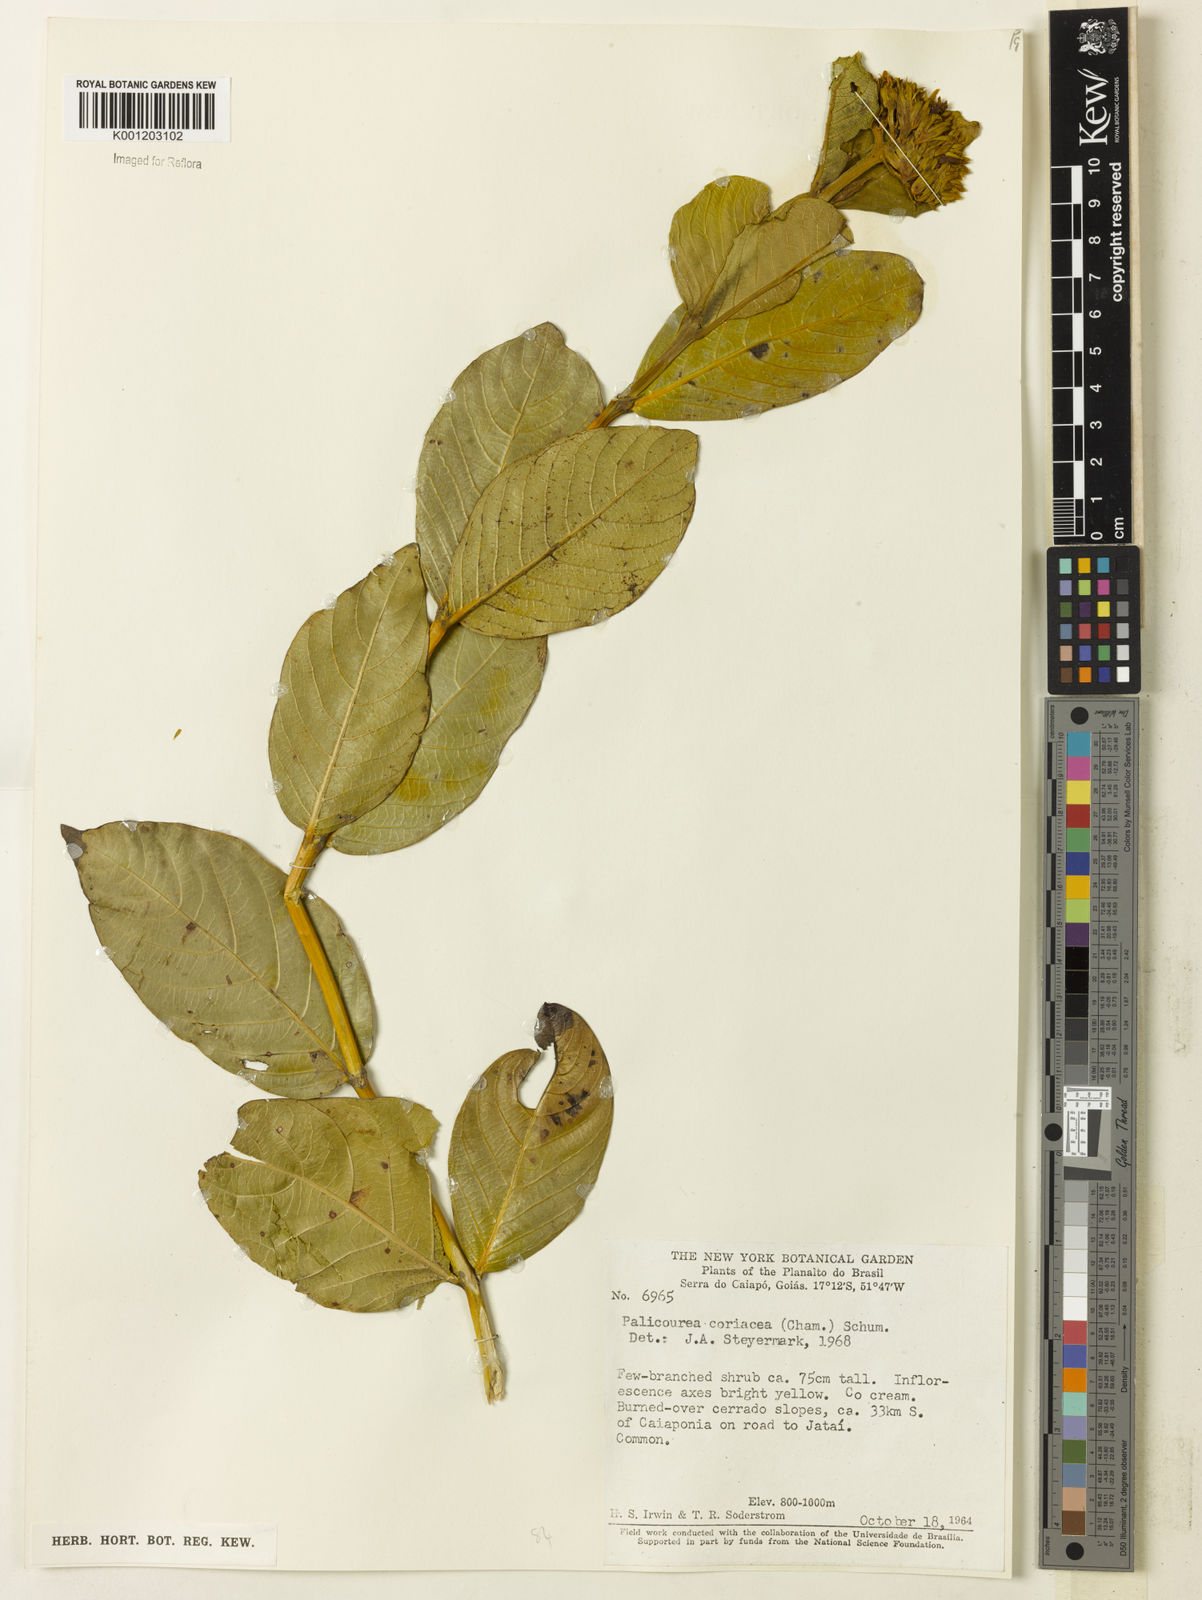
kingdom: Plantae
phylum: Tracheophyta
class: Magnoliopsida
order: Gentianales
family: Rubiaceae
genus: Palicourea
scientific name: Palicourea coriacea
